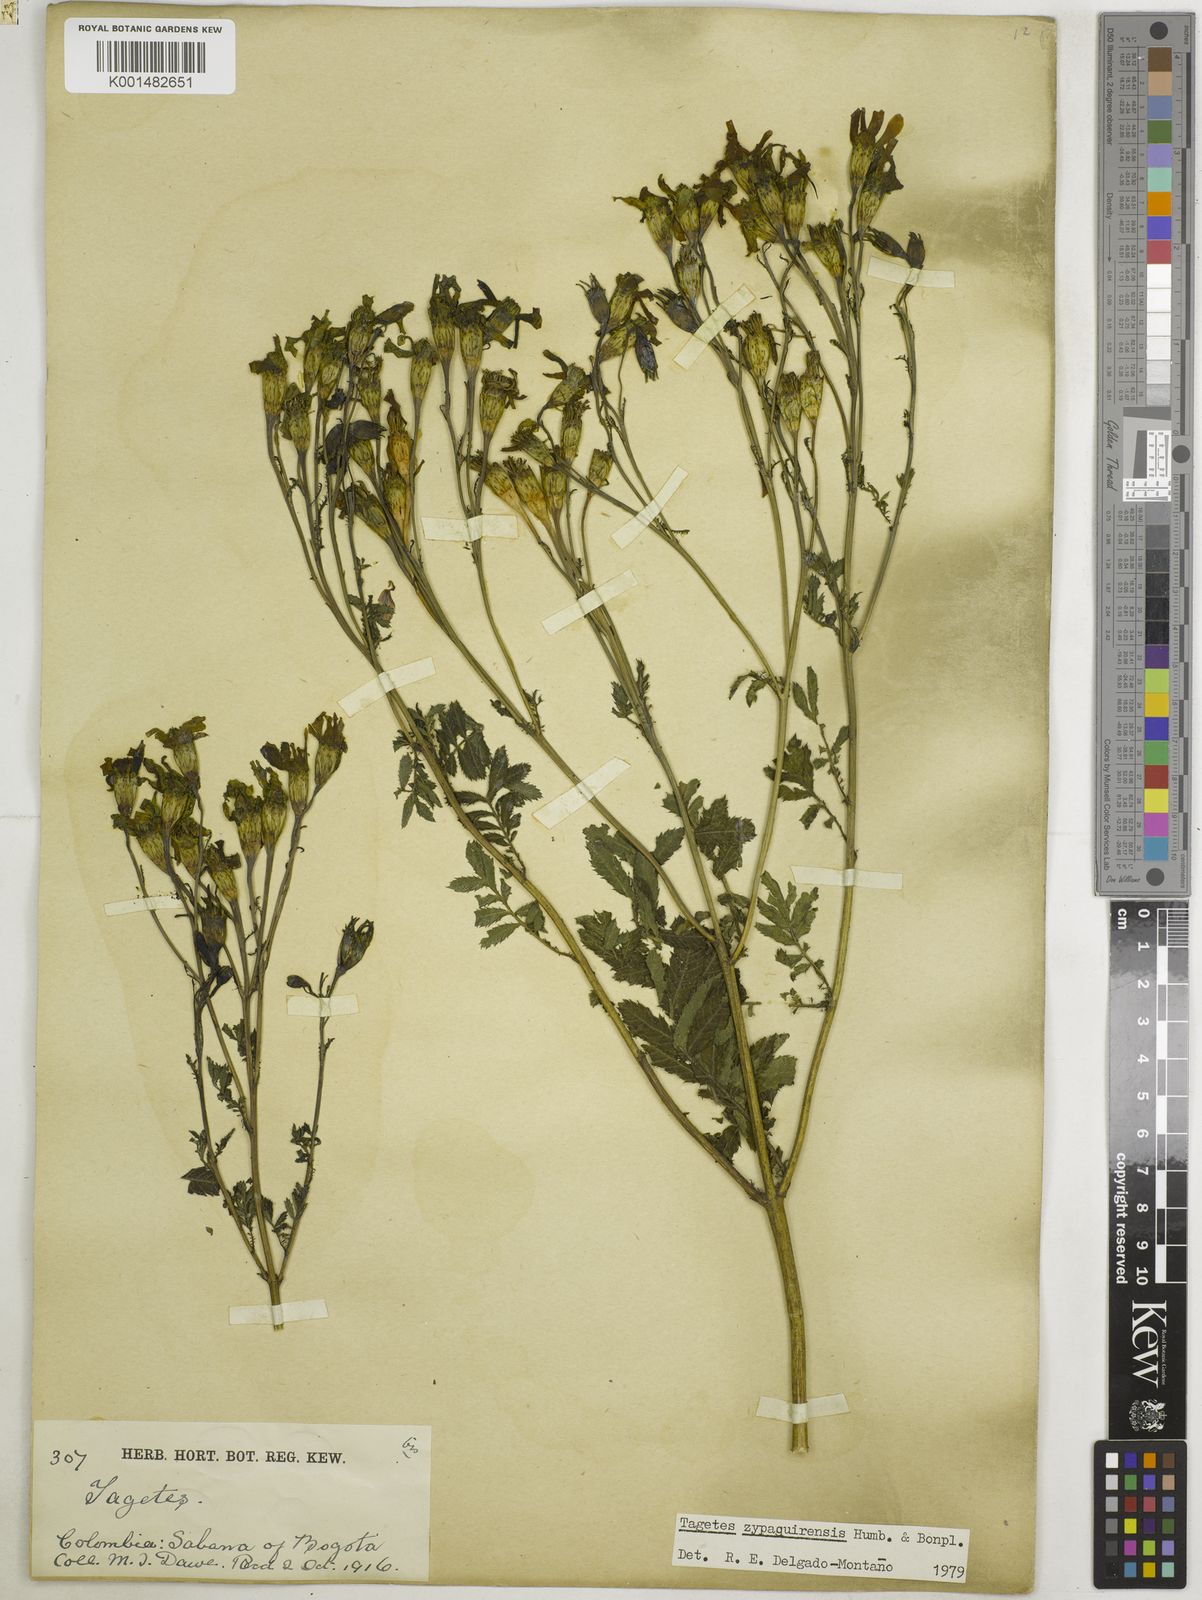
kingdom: Plantae
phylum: Tracheophyta
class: Magnoliopsida
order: Asterales
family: Asteraceae
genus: Tagetes
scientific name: Tagetes zypaquirensis
